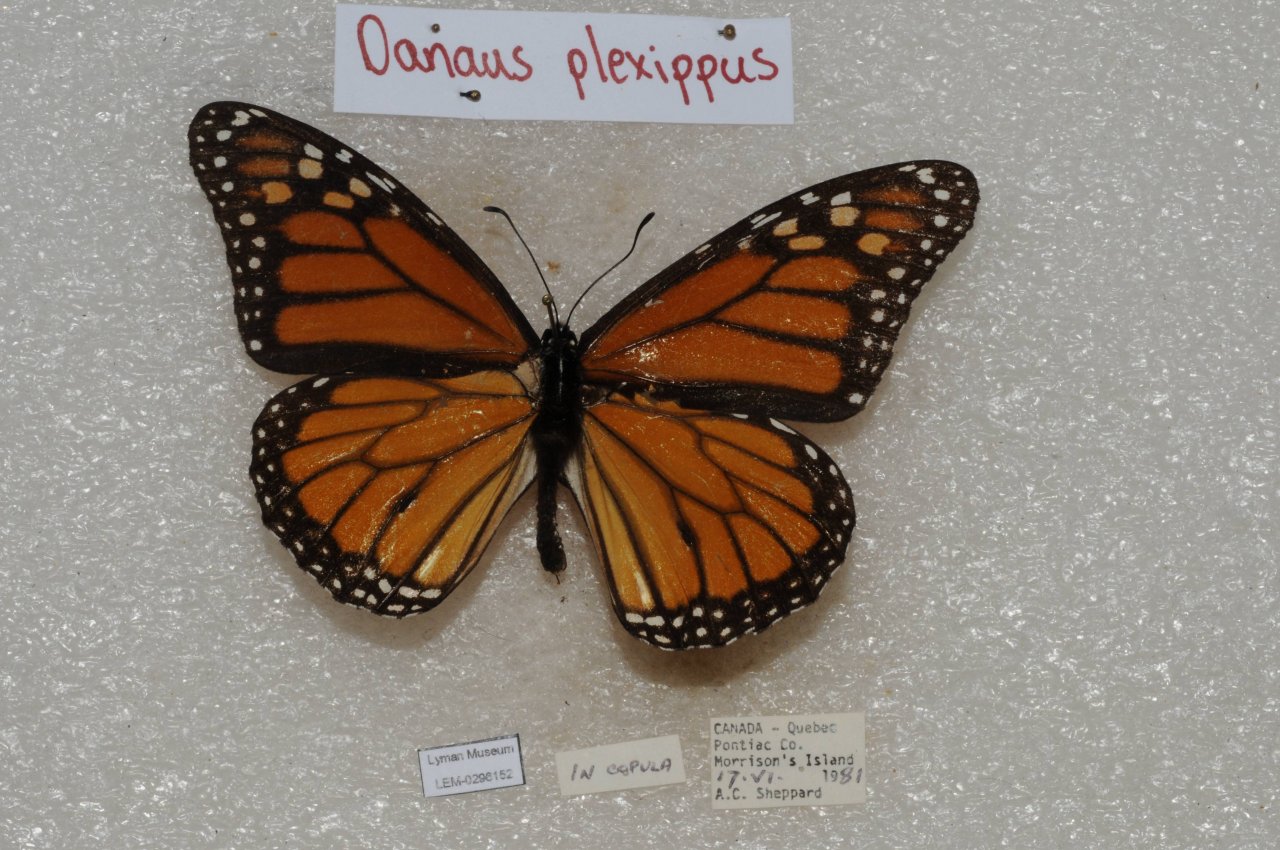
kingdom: Animalia
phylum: Arthropoda
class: Insecta
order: Lepidoptera
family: Nymphalidae
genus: Danaus
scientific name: Danaus plexippus
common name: Monarch
